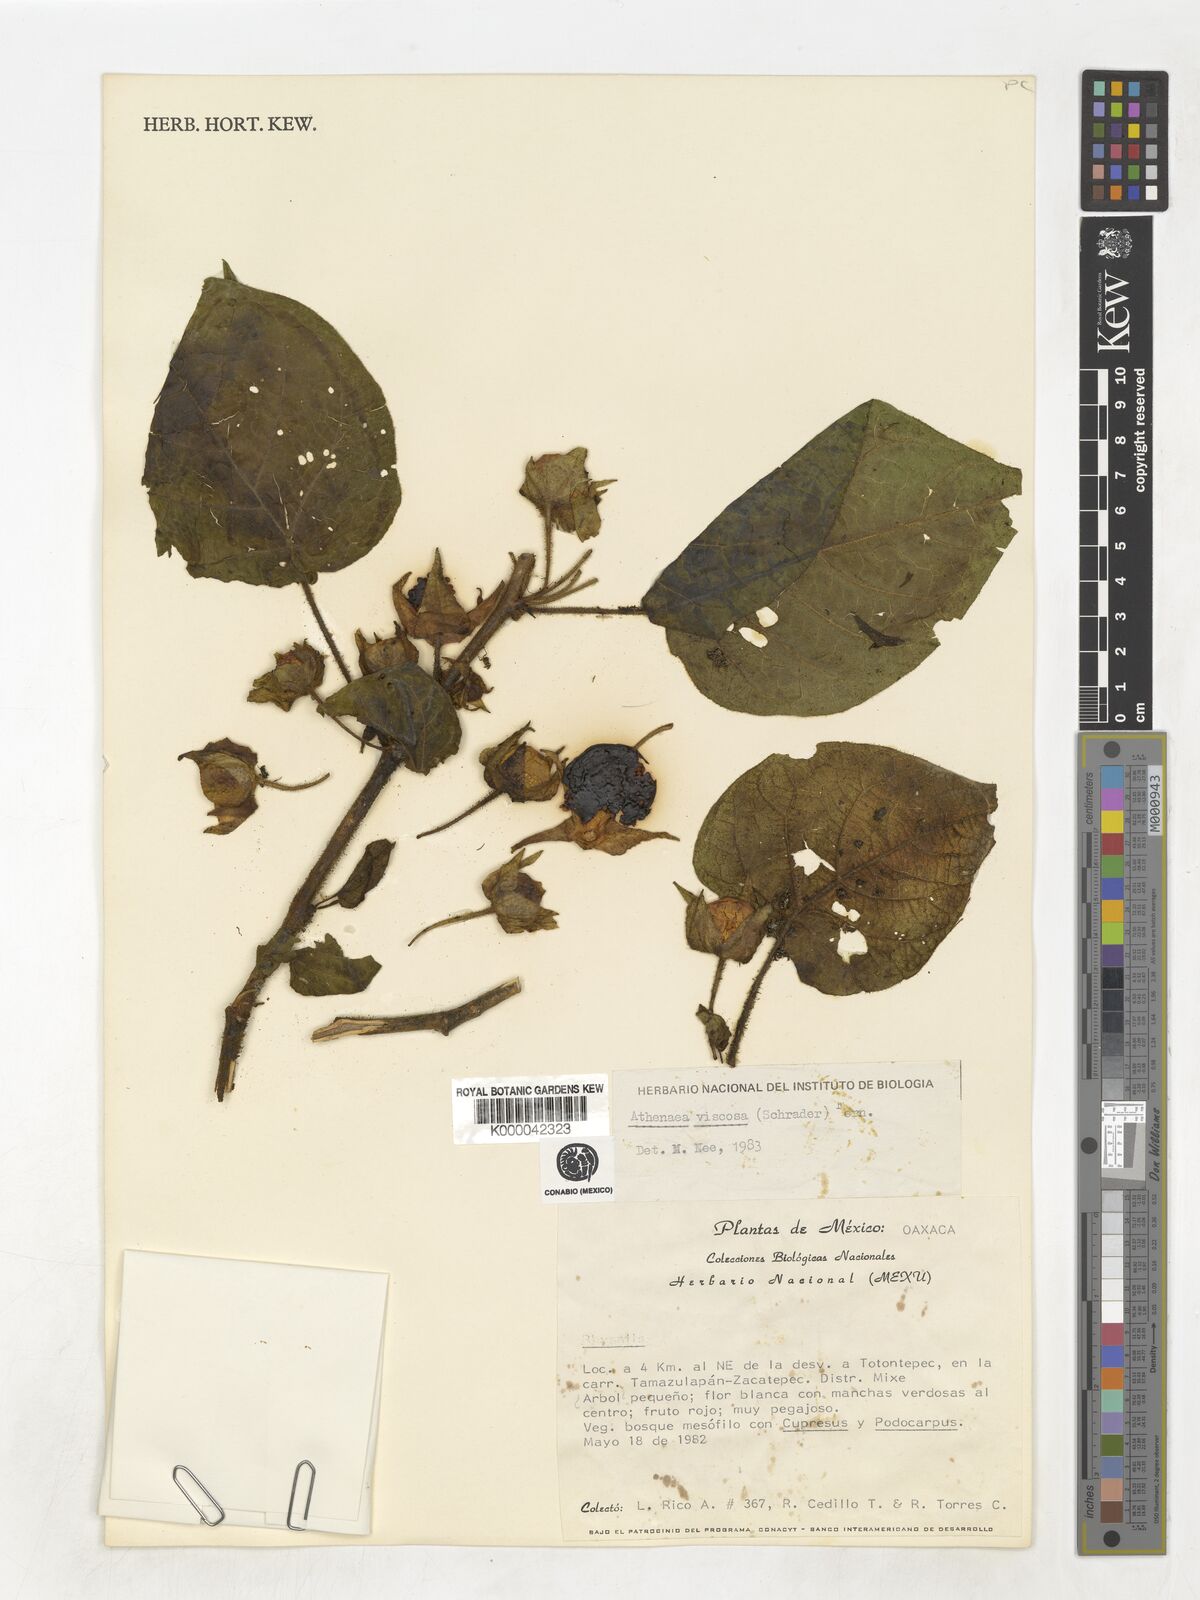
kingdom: Plantae
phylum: Tracheophyta
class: Magnoliopsida
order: Solanales
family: Solanaceae
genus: Schraderanthus
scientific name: Schraderanthus viscosus
